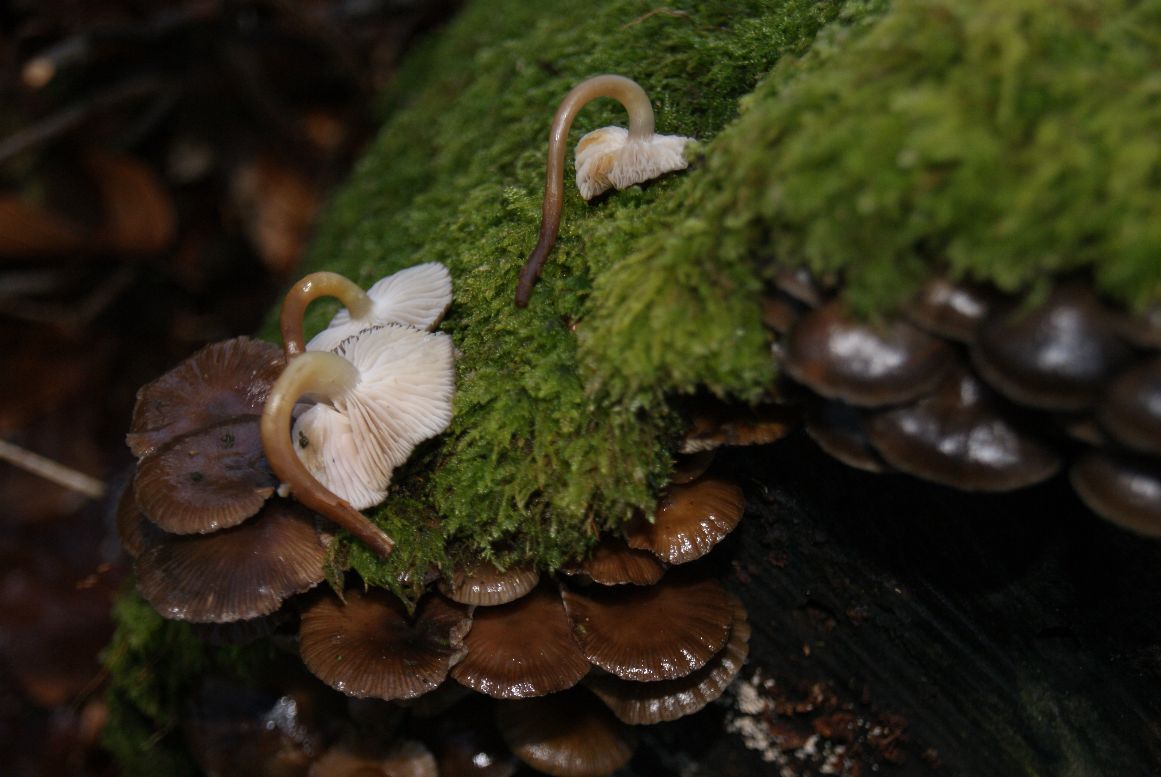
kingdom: Fungi
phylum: Basidiomycota
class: Agaricomycetes
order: Agaricales
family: Mycenaceae
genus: Mycena
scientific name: Mycena tintinnabulum
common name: vinter-huesvamp
